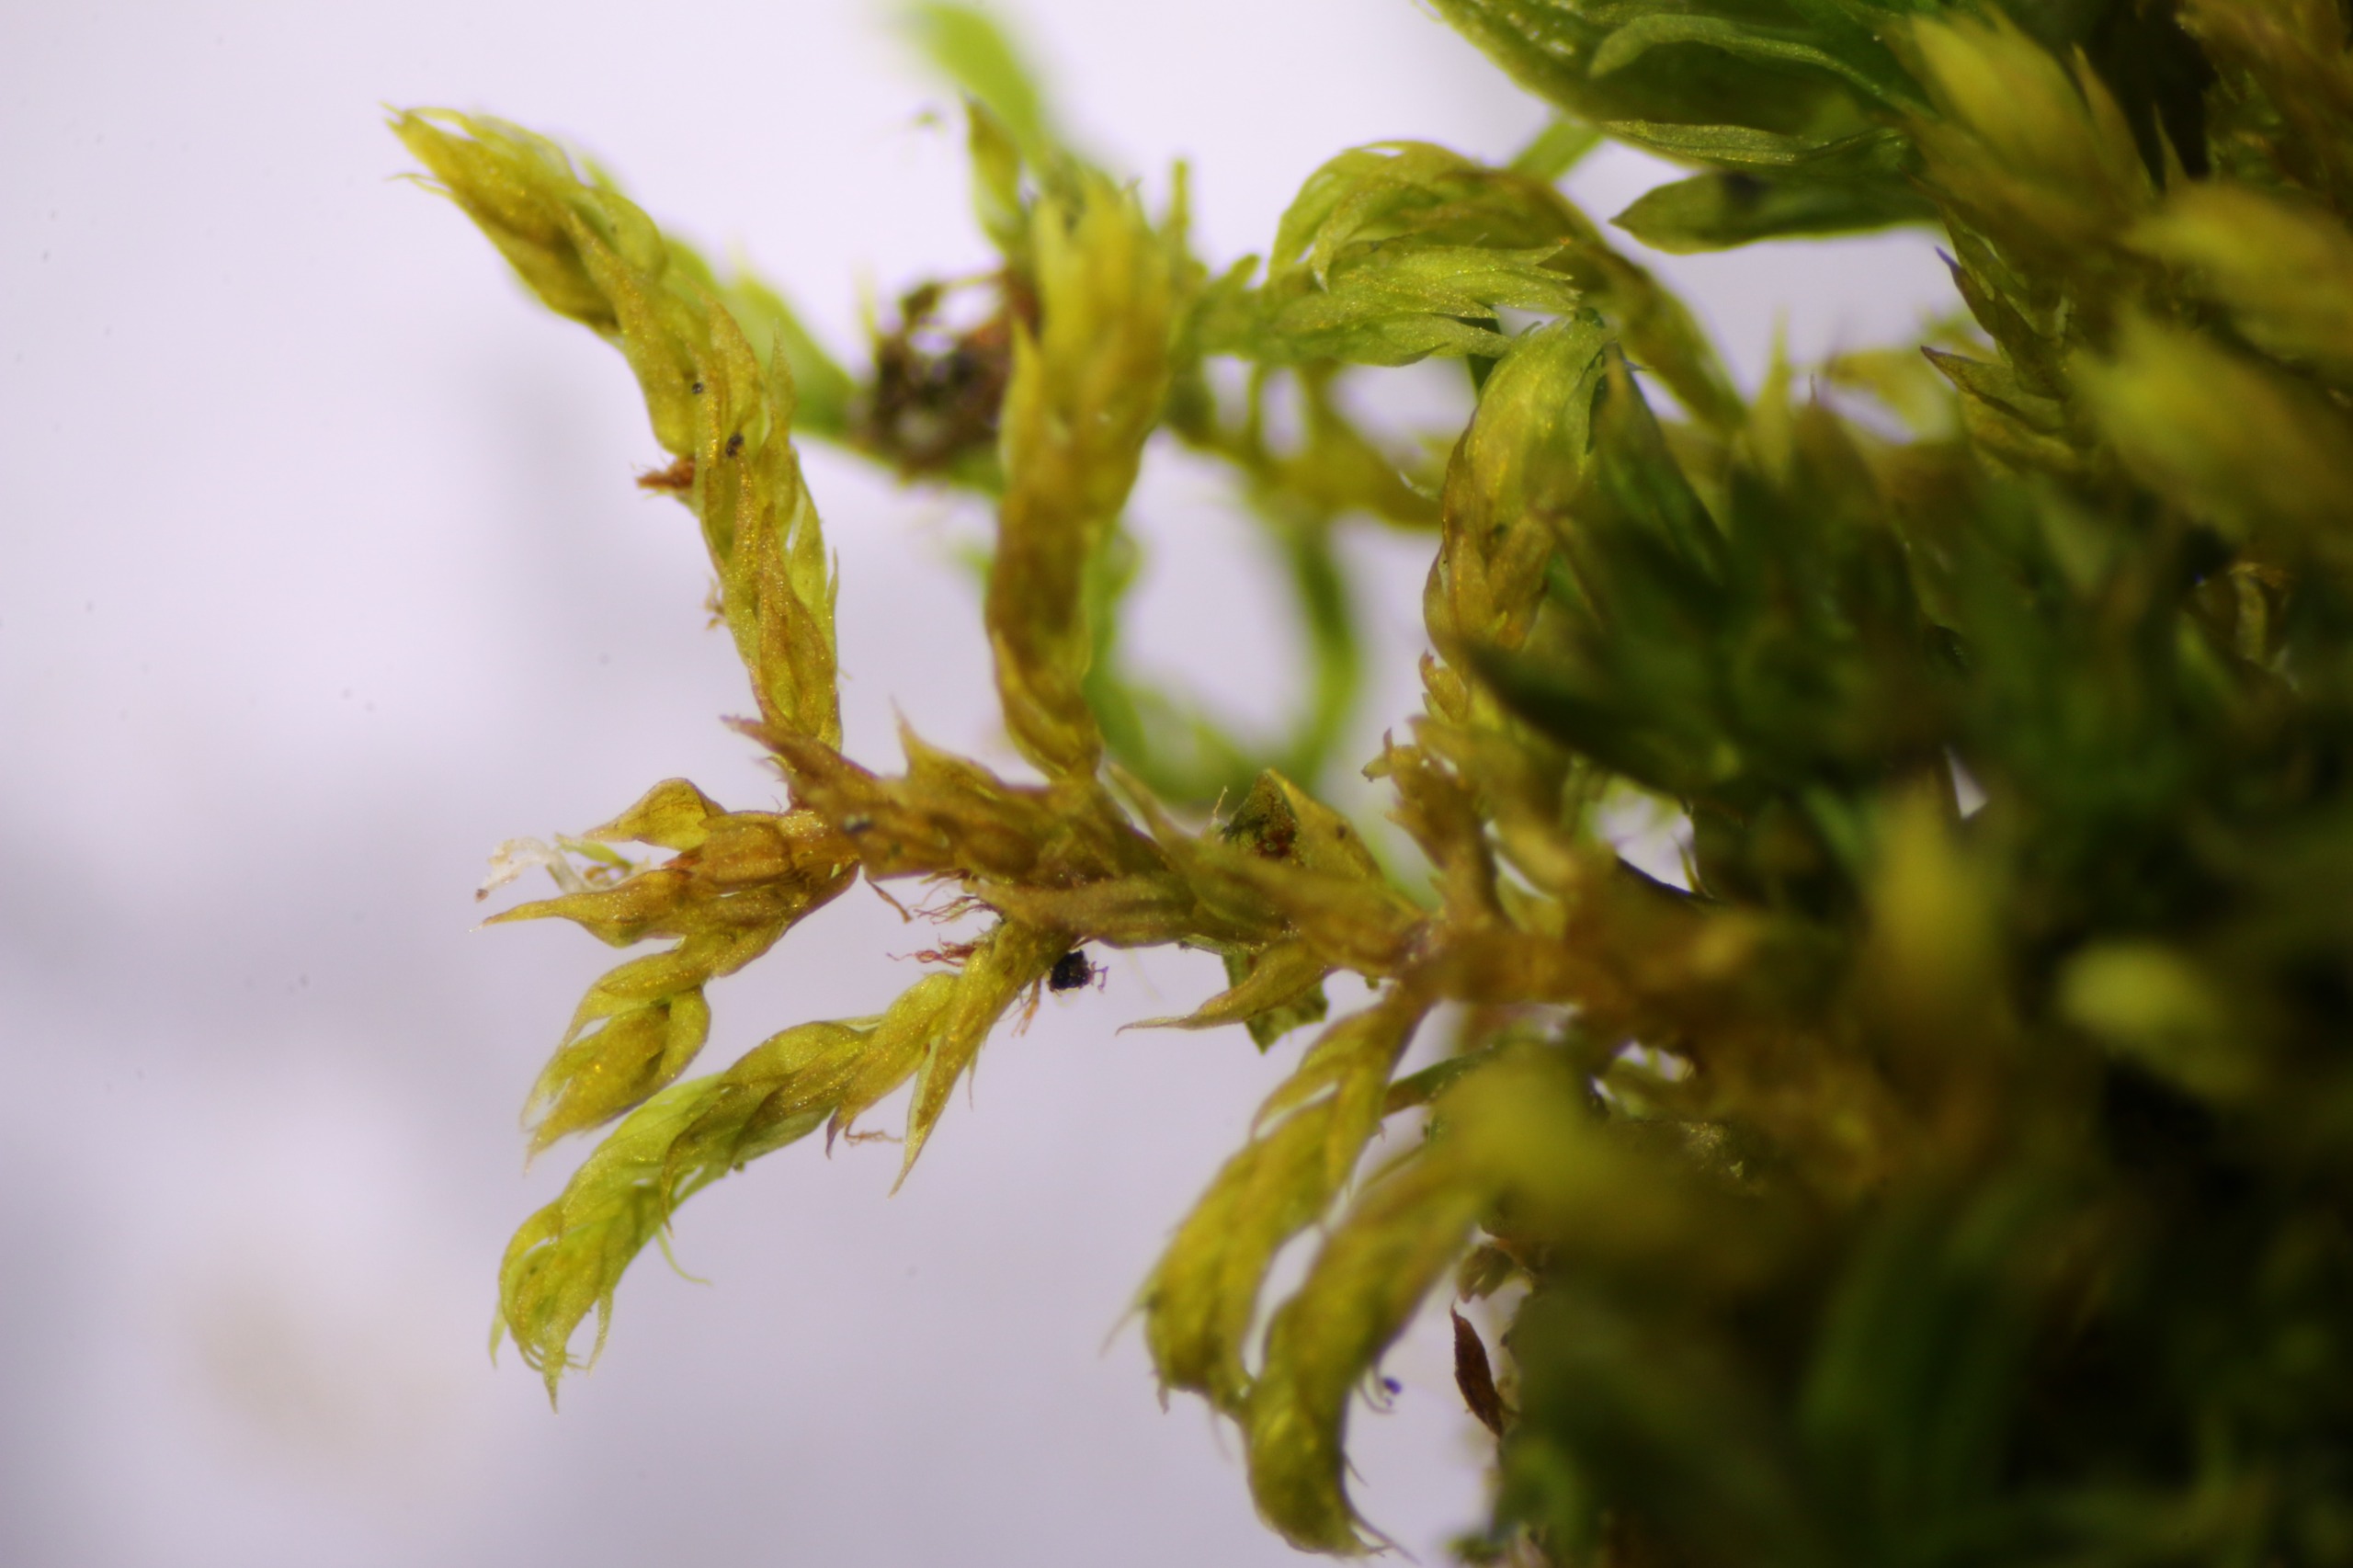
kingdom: Plantae
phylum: Bryophyta
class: Bryopsida
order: Hypnales
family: Leskeaceae
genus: Leskea
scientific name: Leskea polycarpa
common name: Mat lærkemos
